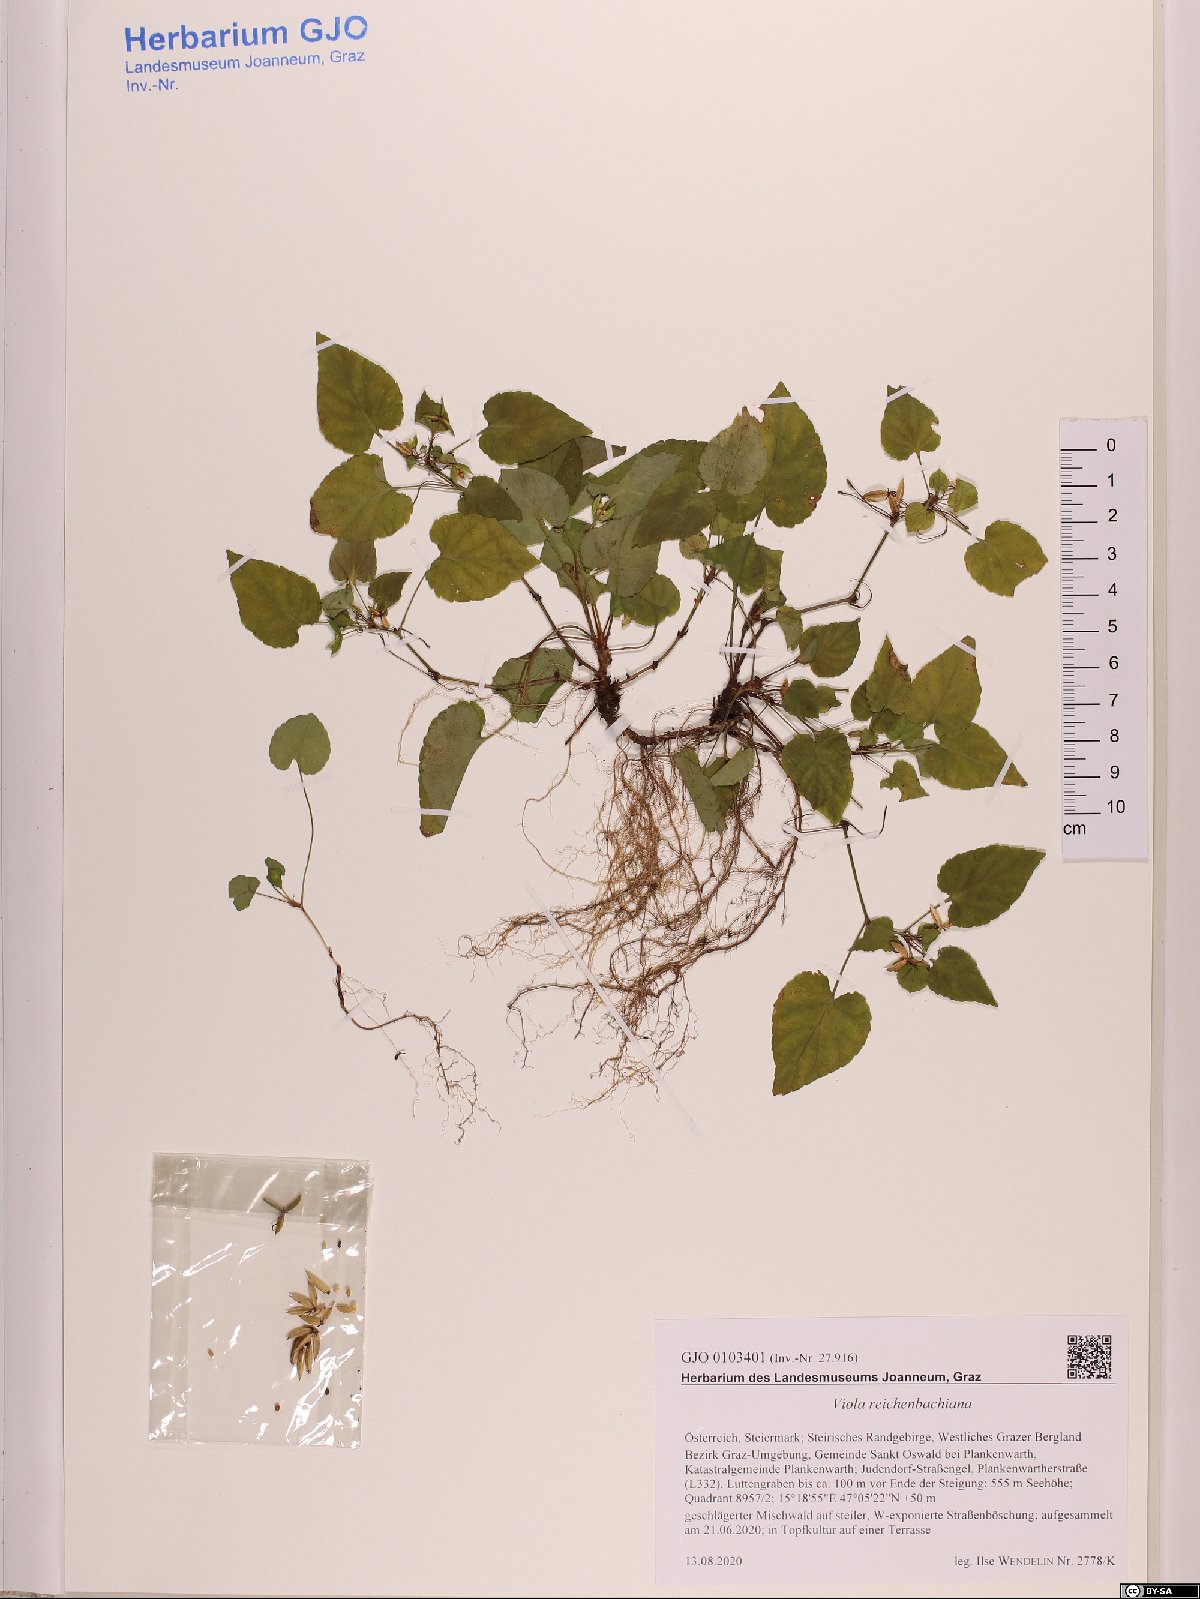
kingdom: Plantae
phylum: Tracheophyta
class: Magnoliopsida
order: Malpighiales
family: Violaceae
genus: Viola
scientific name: Viola reichenbachiana
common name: Early dog-violet
